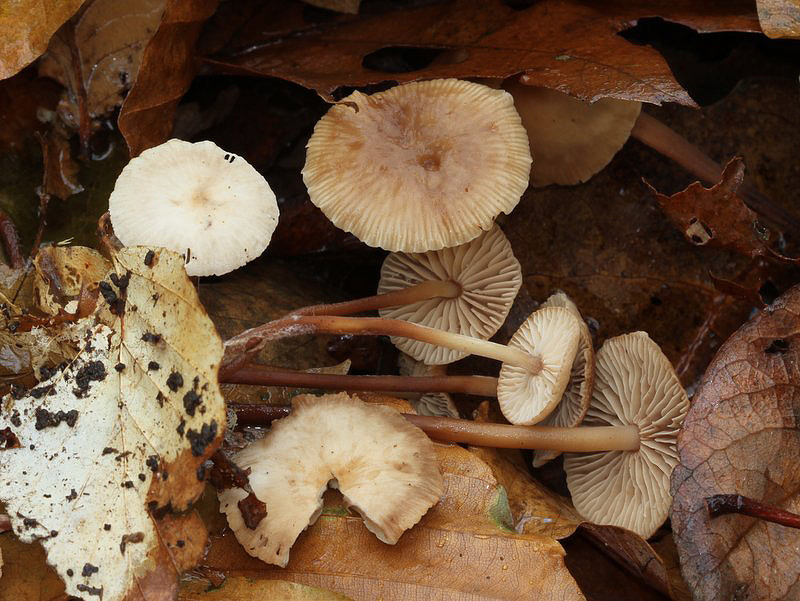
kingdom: Fungi
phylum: Basidiomycota
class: Agaricomycetes
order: Agaricales
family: Omphalotaceae
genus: Mycetinis
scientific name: Mycetinis querceus
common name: ege-løghat
